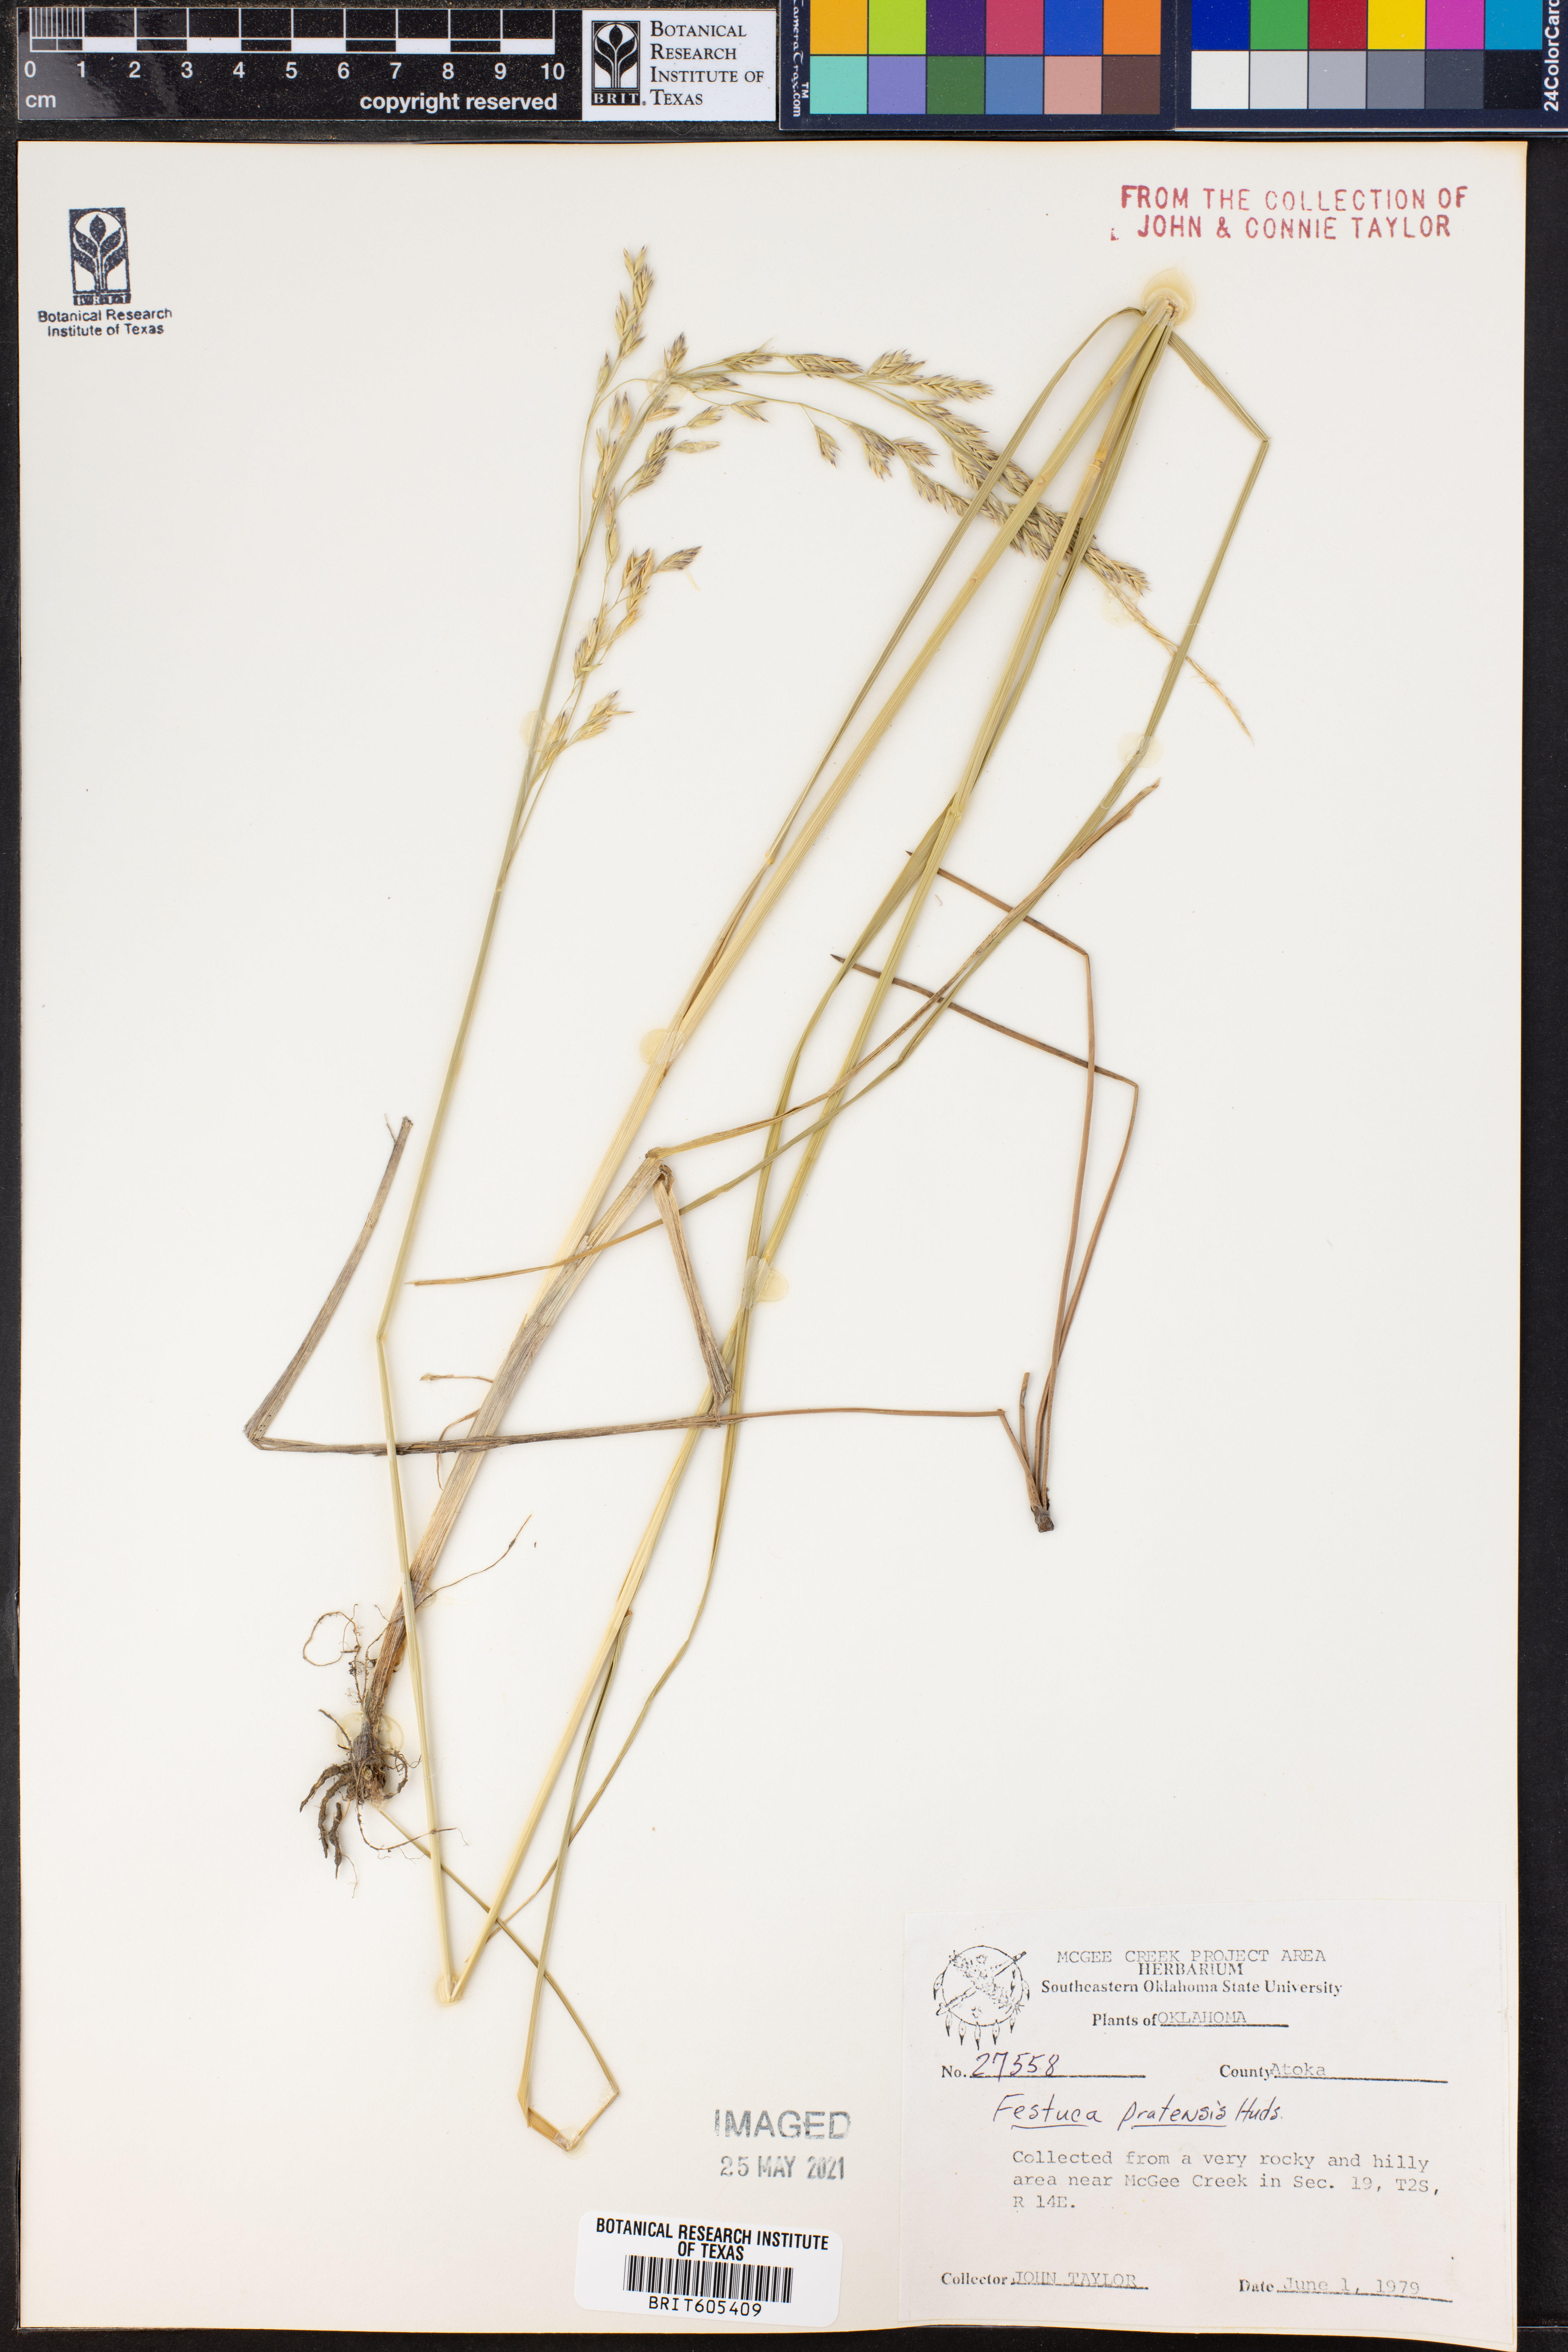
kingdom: Plantae
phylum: Tracheophyta
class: Liliopsida
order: Poales
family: Poaceae
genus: Lolium
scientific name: Lolium pratense
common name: Dover grass
